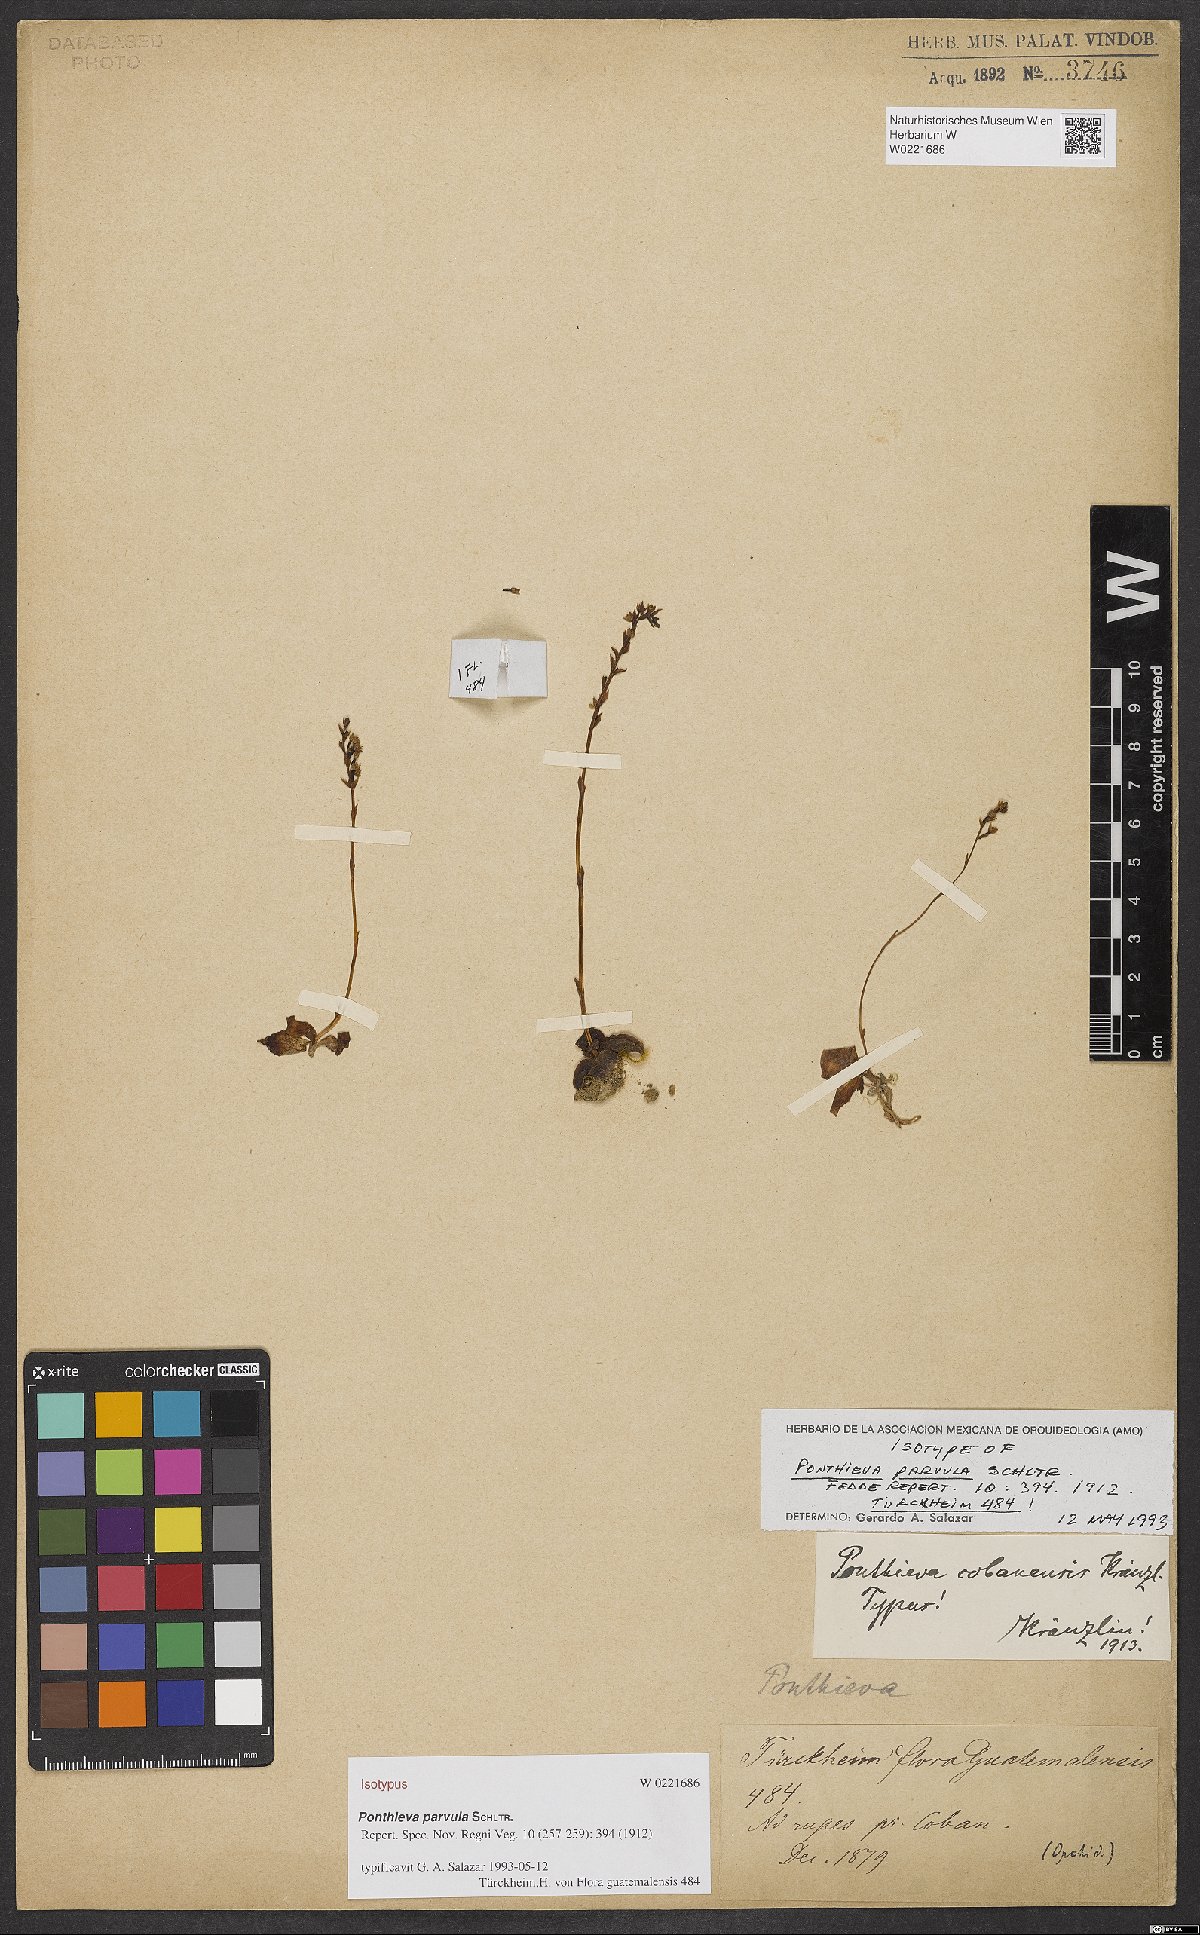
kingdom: Plantae
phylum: Tracheophyta
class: Liliopsida
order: Asparagales
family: Orchidaceae
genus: Ponthieva
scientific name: Ponthieva parvula
